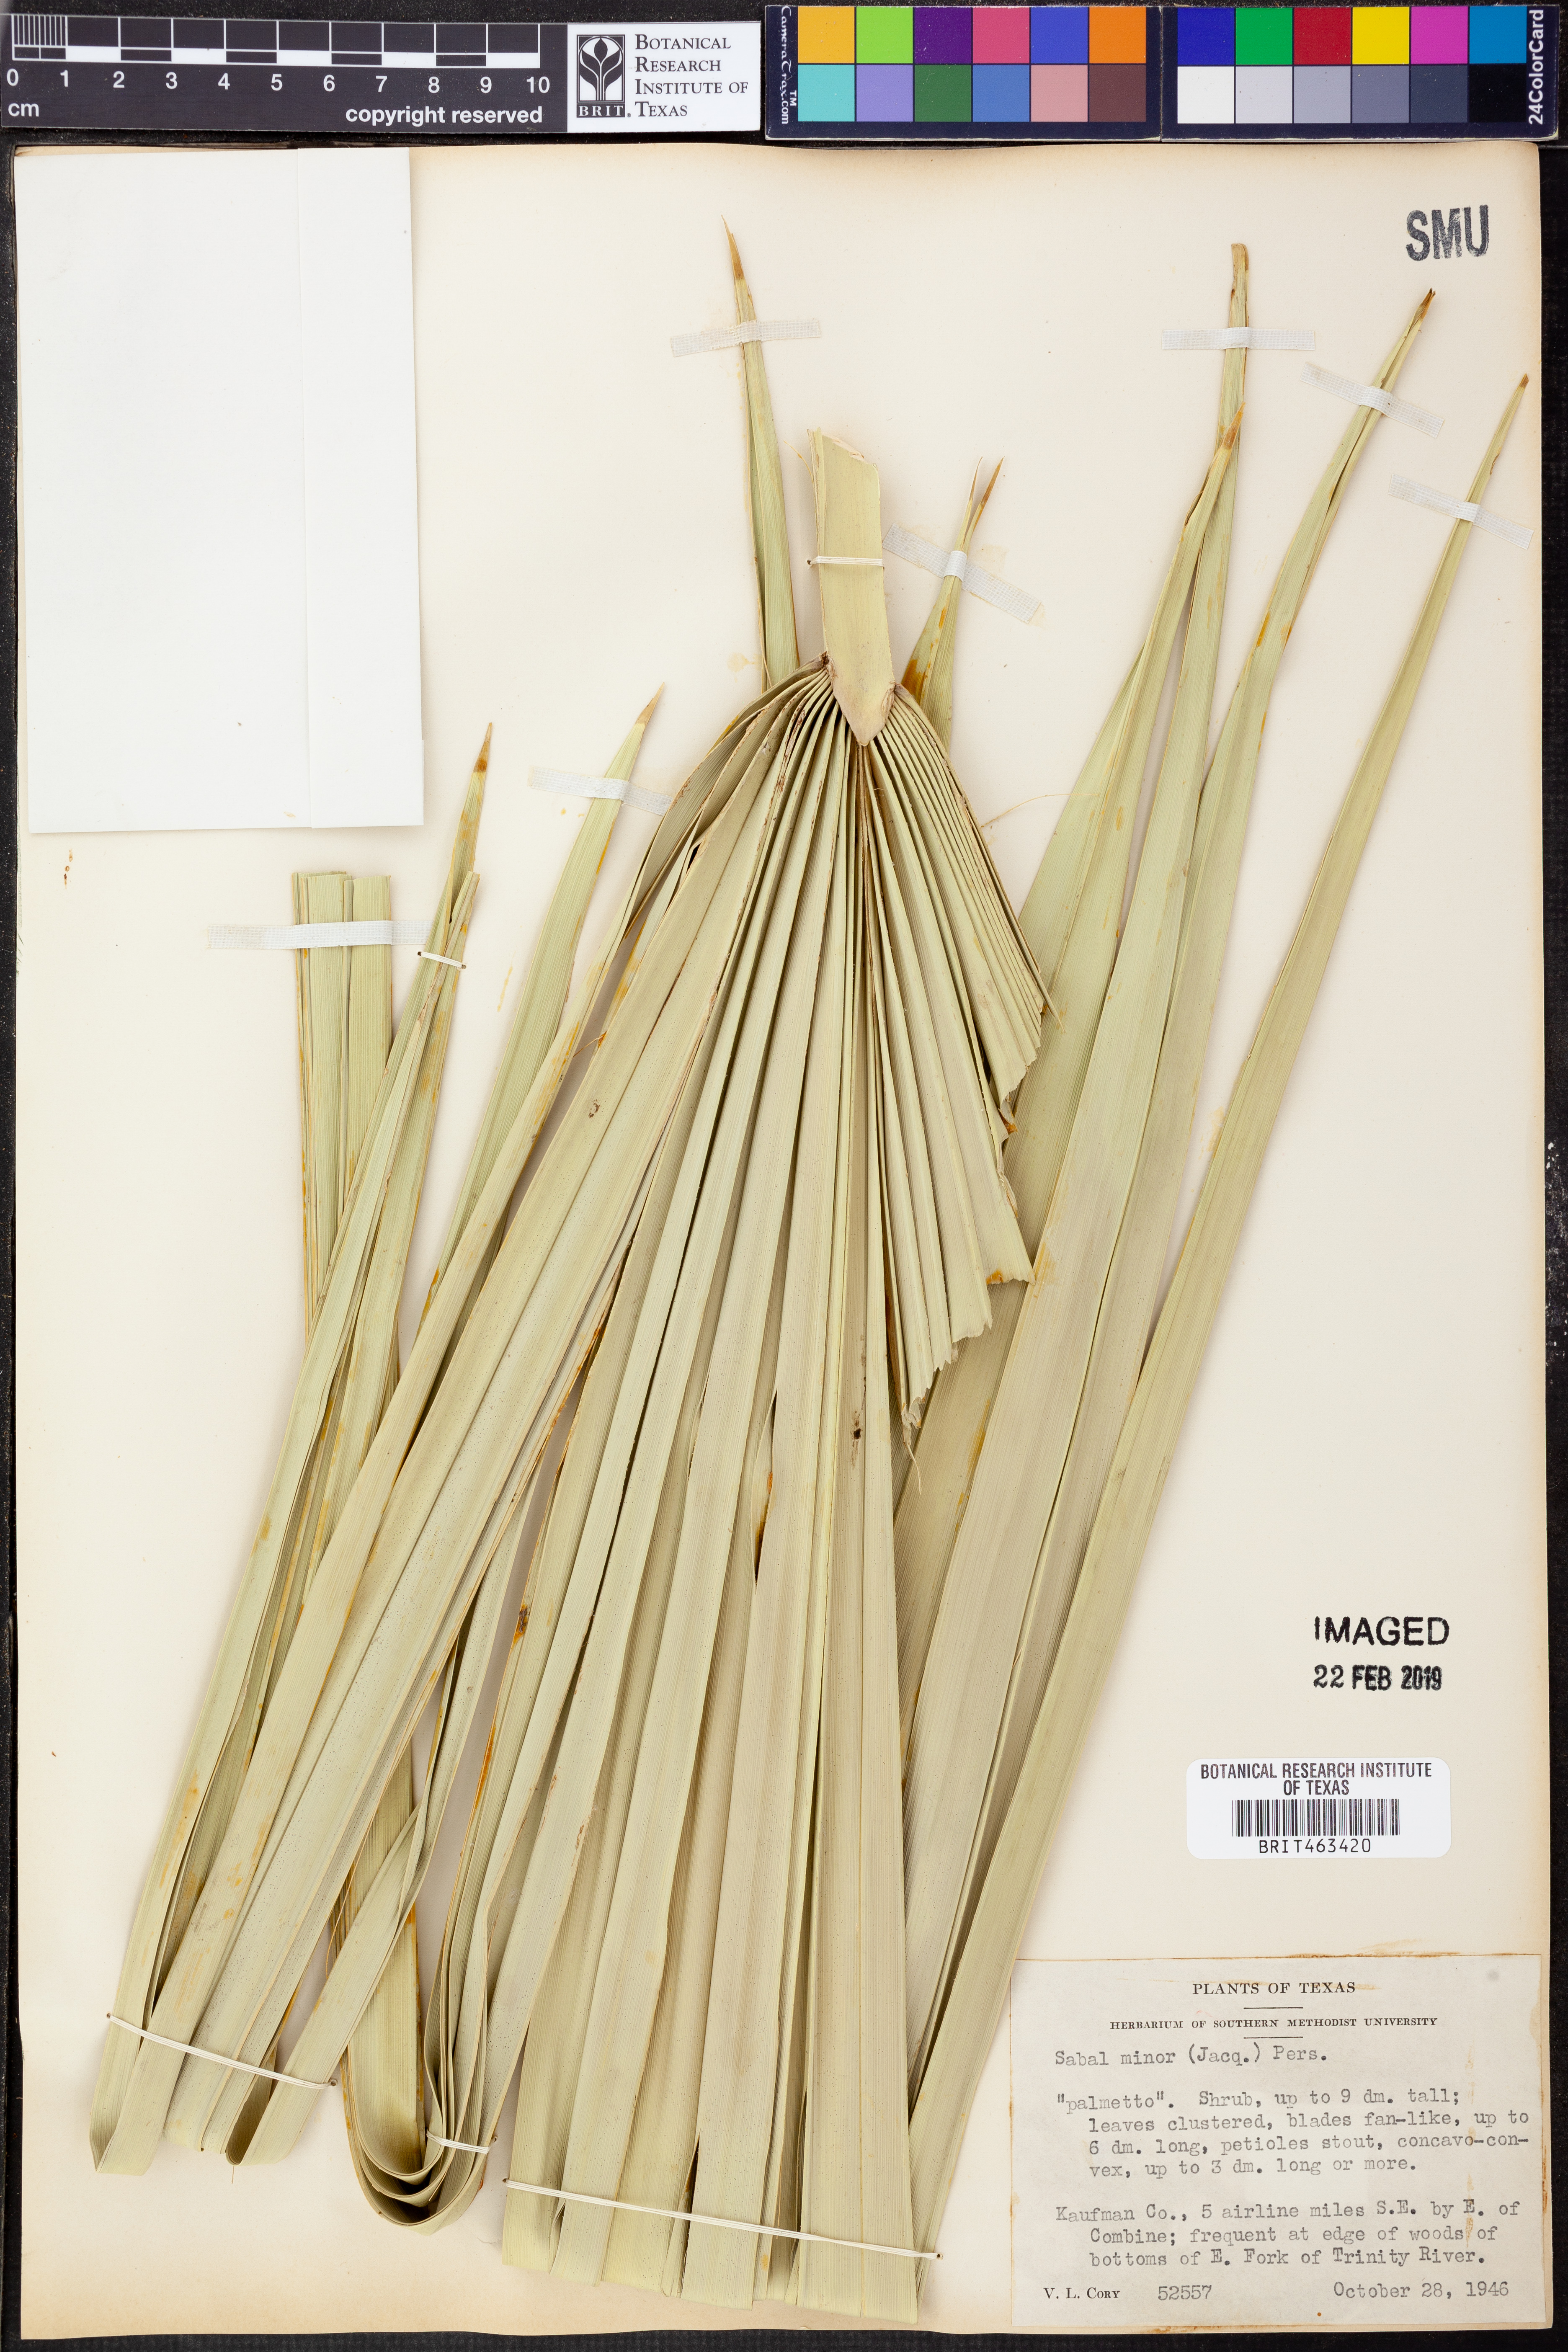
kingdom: Plantae
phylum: Tracheophyta
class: Liliopsida
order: Arecales
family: Arecaceae
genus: Sabal
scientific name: Sabal minor
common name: Dwarf palmetto
